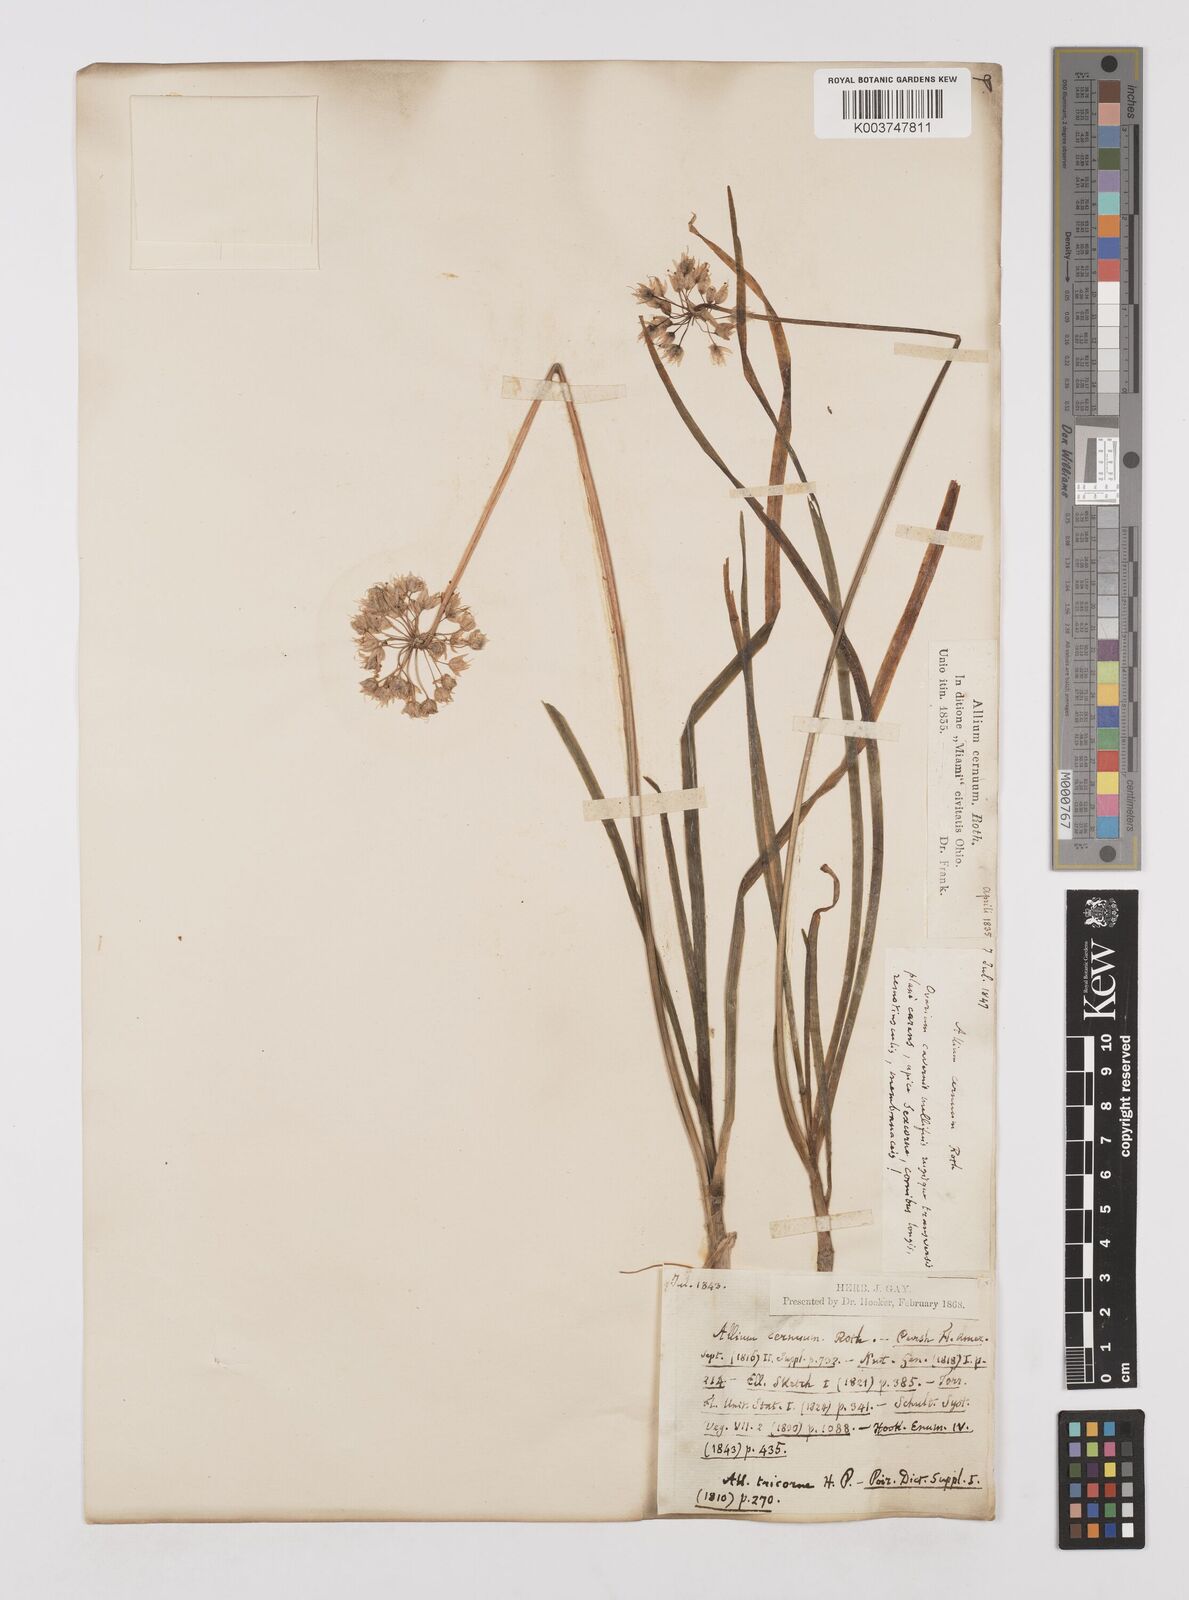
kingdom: Plantae
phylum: Tracheophyta
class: Liliopsida
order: Asparagales
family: Amaryllidaceae
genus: Allium
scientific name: Allium cernuum
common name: Nodding onion
